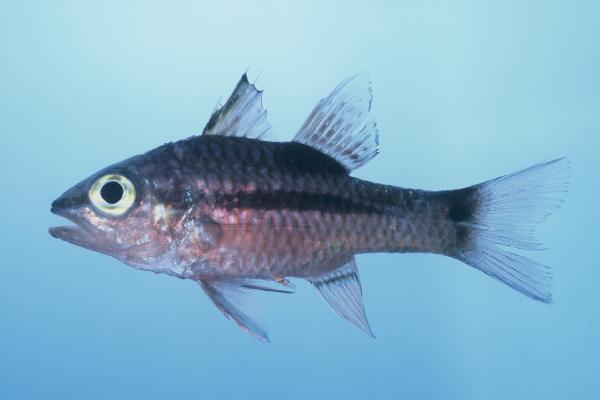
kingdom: Animalia
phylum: Chordata
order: Perciformes
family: Apogonidae
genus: Pristiapogon
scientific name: Pristiapogon kallopterus
